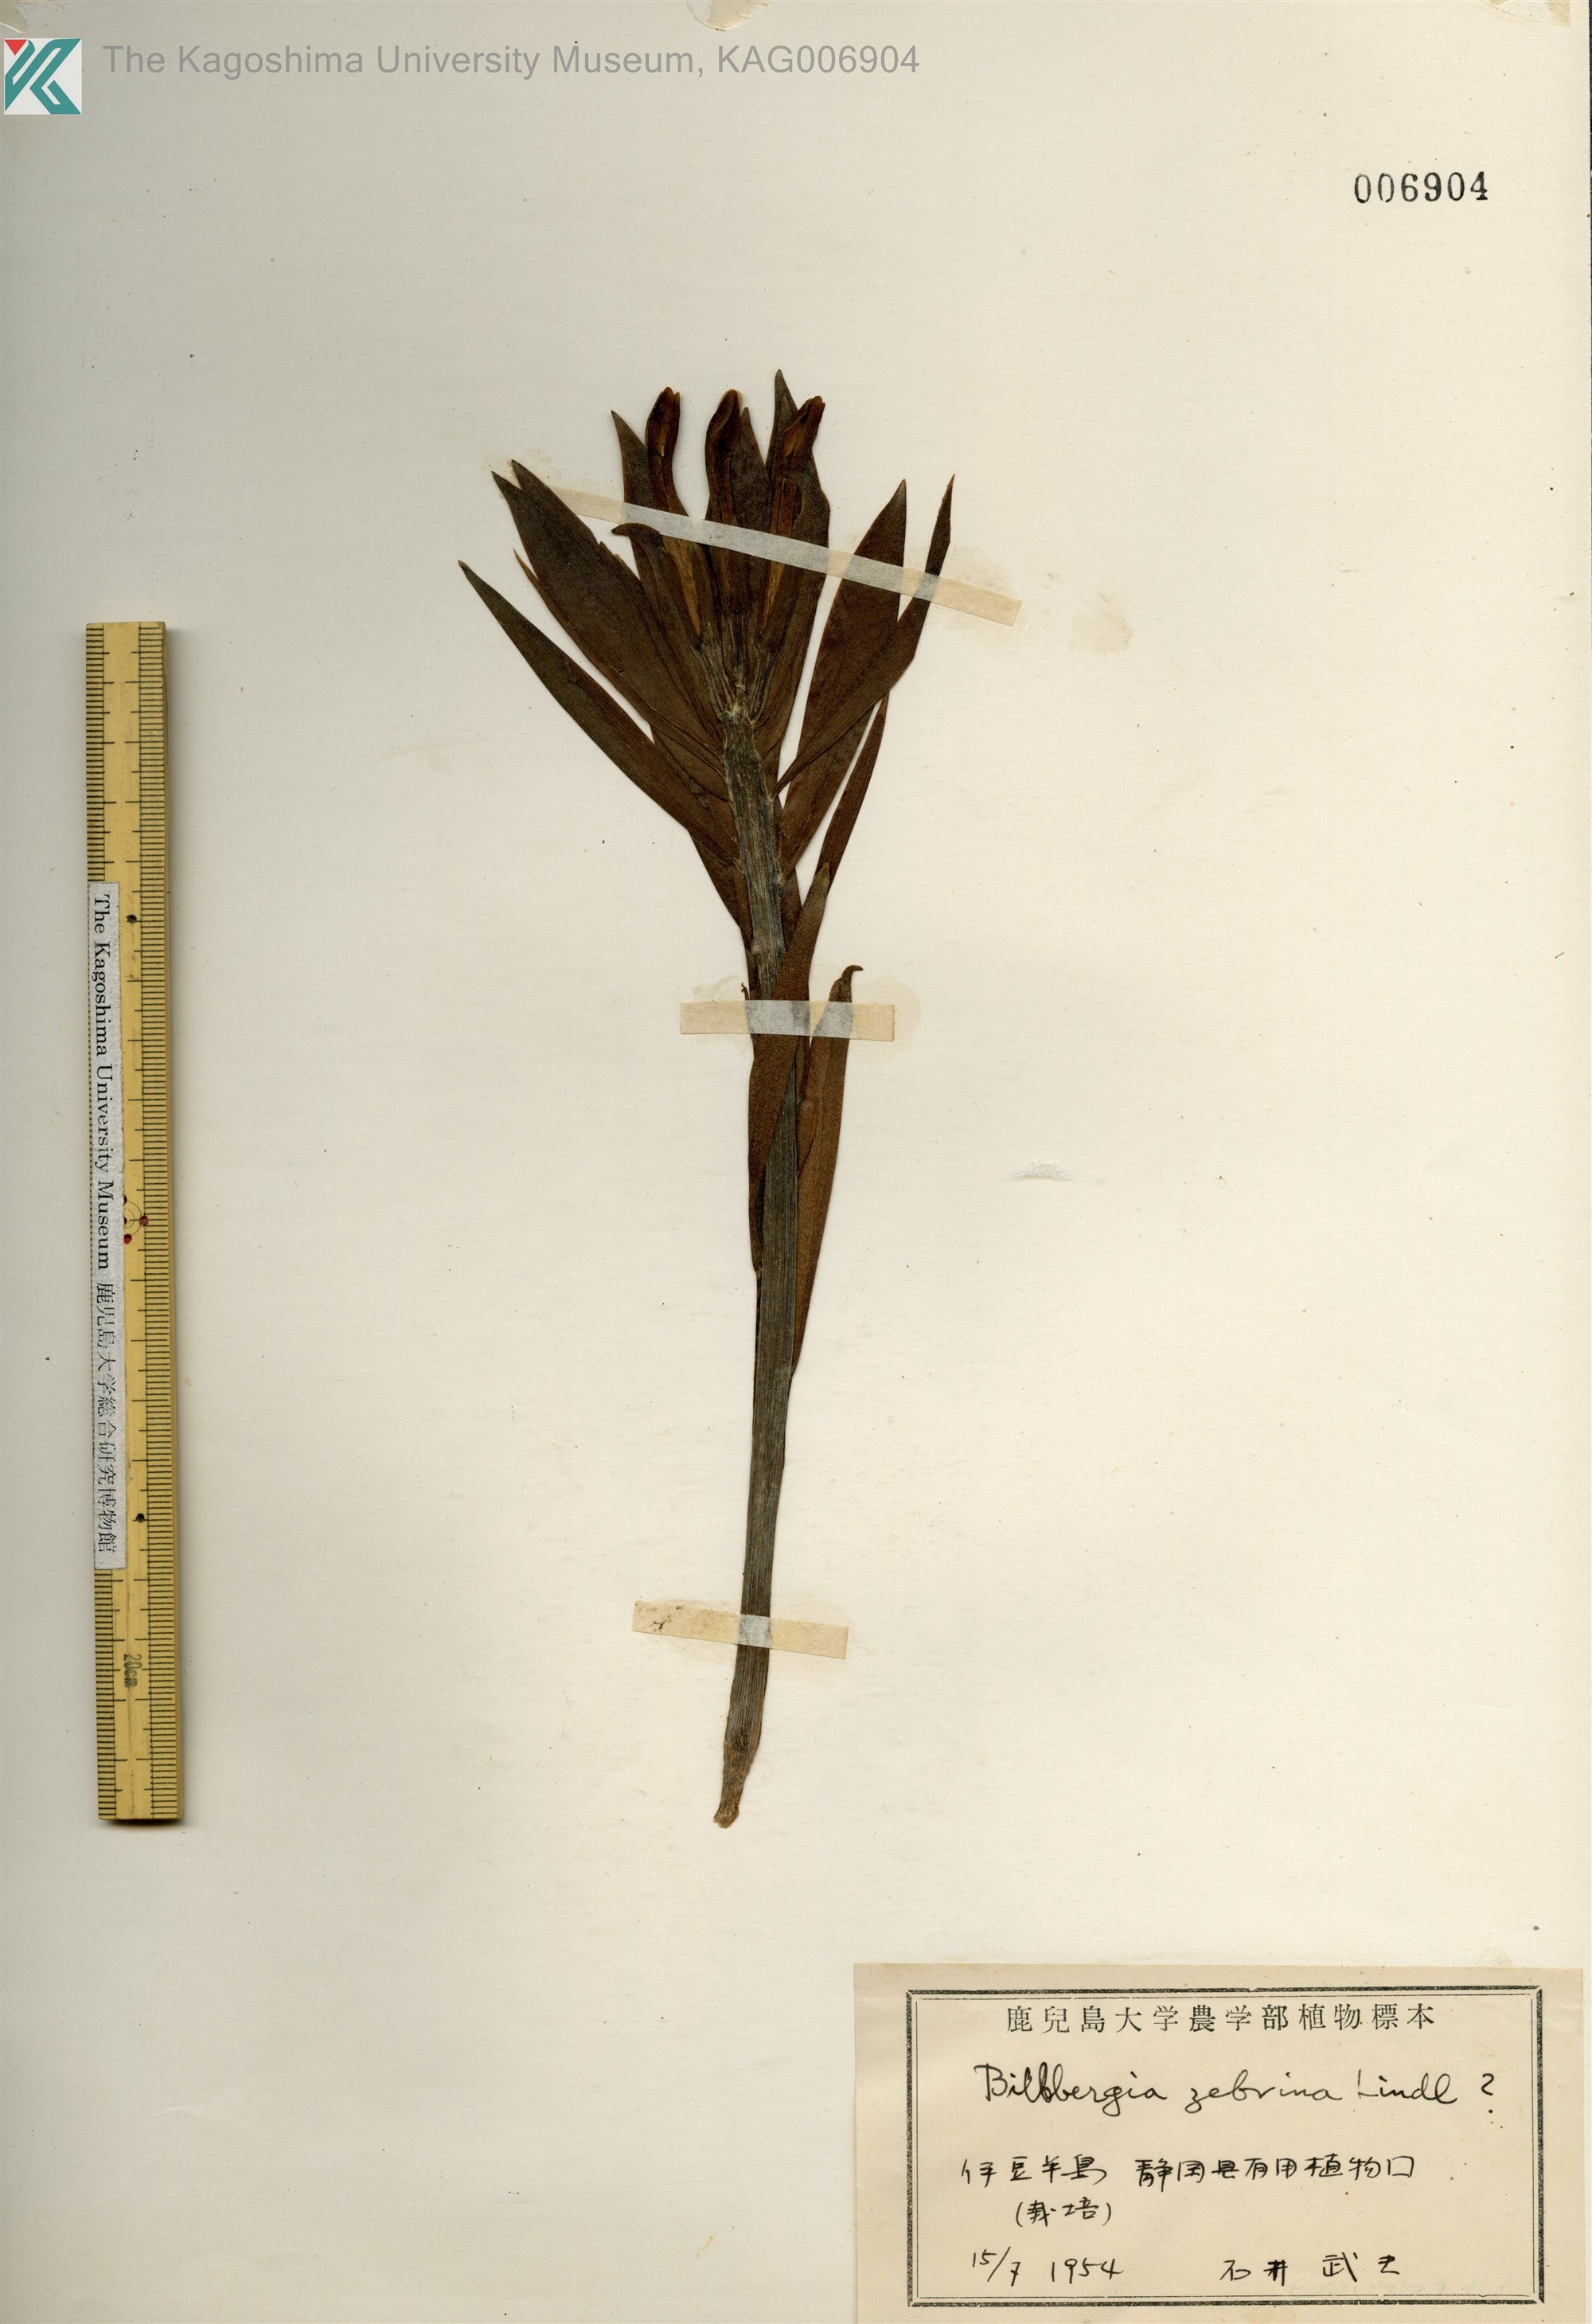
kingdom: Plantae
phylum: Tracheophyta
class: Liliopsida
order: Poales
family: Bromeliaceae
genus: Billbergia
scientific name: Billbergia
